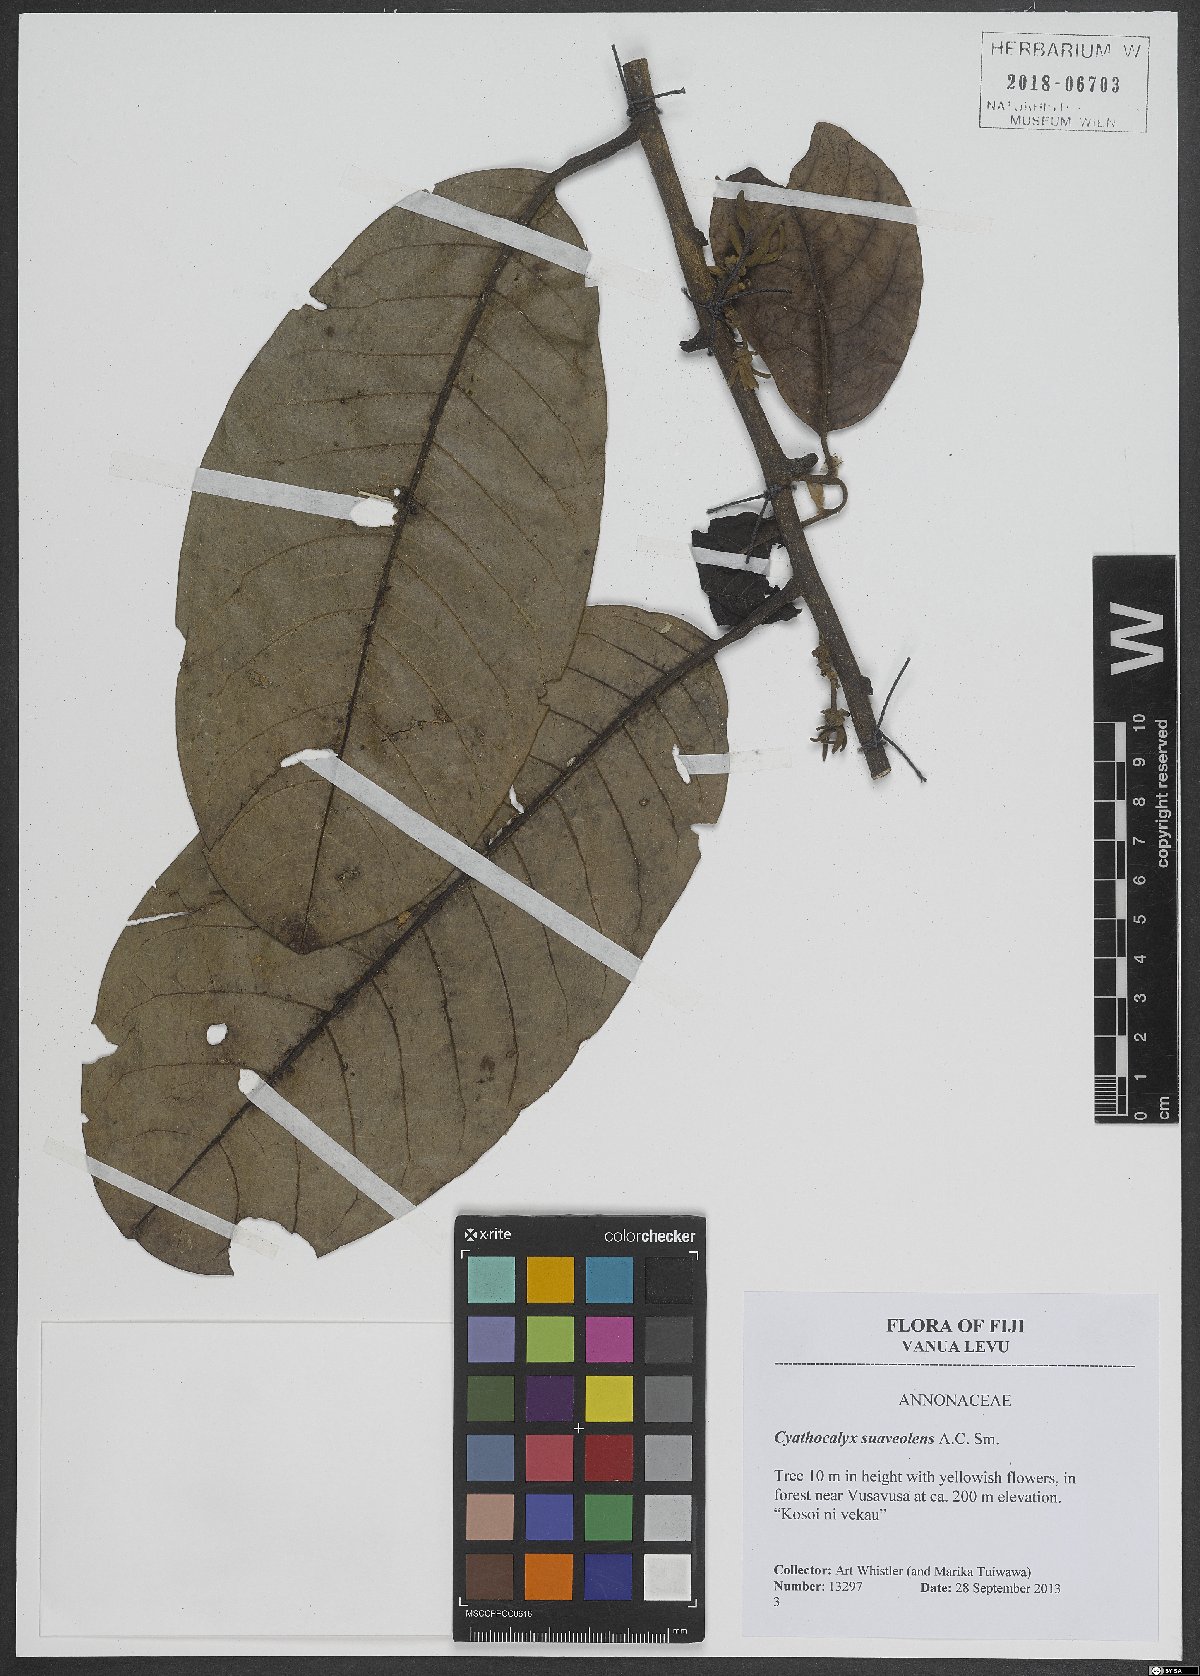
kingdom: Plantae
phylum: Tracheophyta
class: Magnoliopsida
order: Magnoliales
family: Annonaceae
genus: Drepananthus
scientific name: Drepananthus vitiensis
